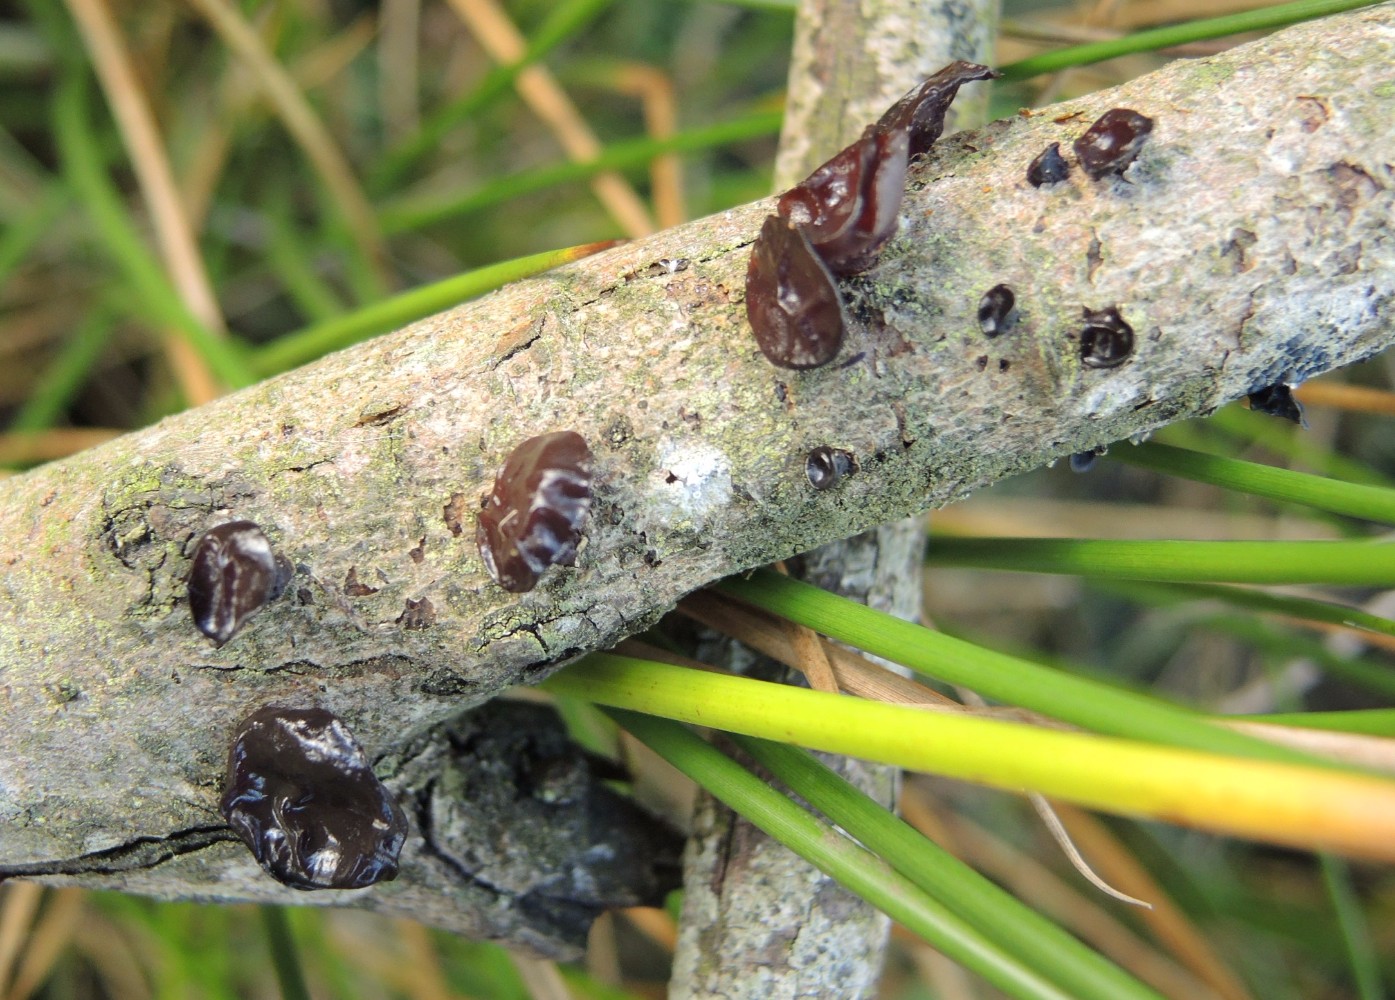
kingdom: Fungi
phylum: Basidiomycota
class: Agaricomycetes
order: Auriculariales
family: Auriculariaceae
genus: Exidia
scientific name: Exidia recisa
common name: pile-bævretop
